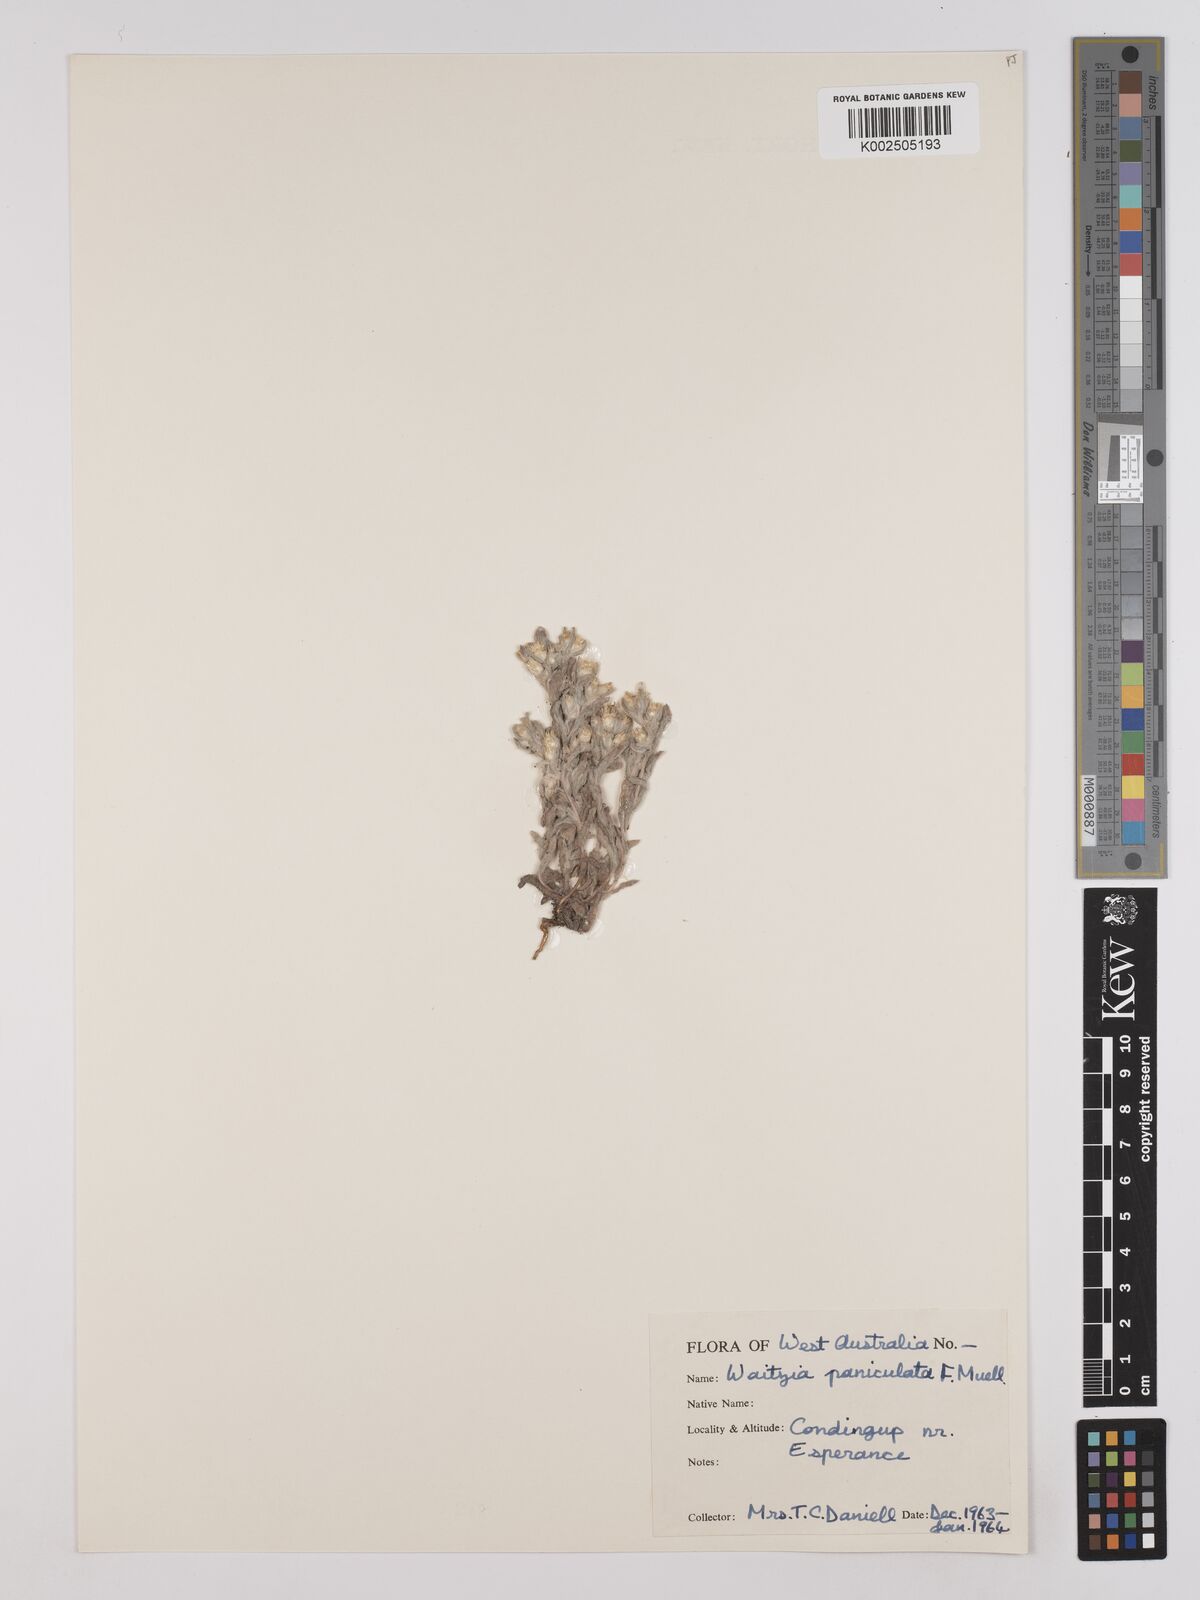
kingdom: Plantae
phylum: Tracheophyta
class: Magnoliopsida
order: Asterales
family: Asteraceae
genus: Pterochaeta
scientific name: Pterochaeta paniculata
